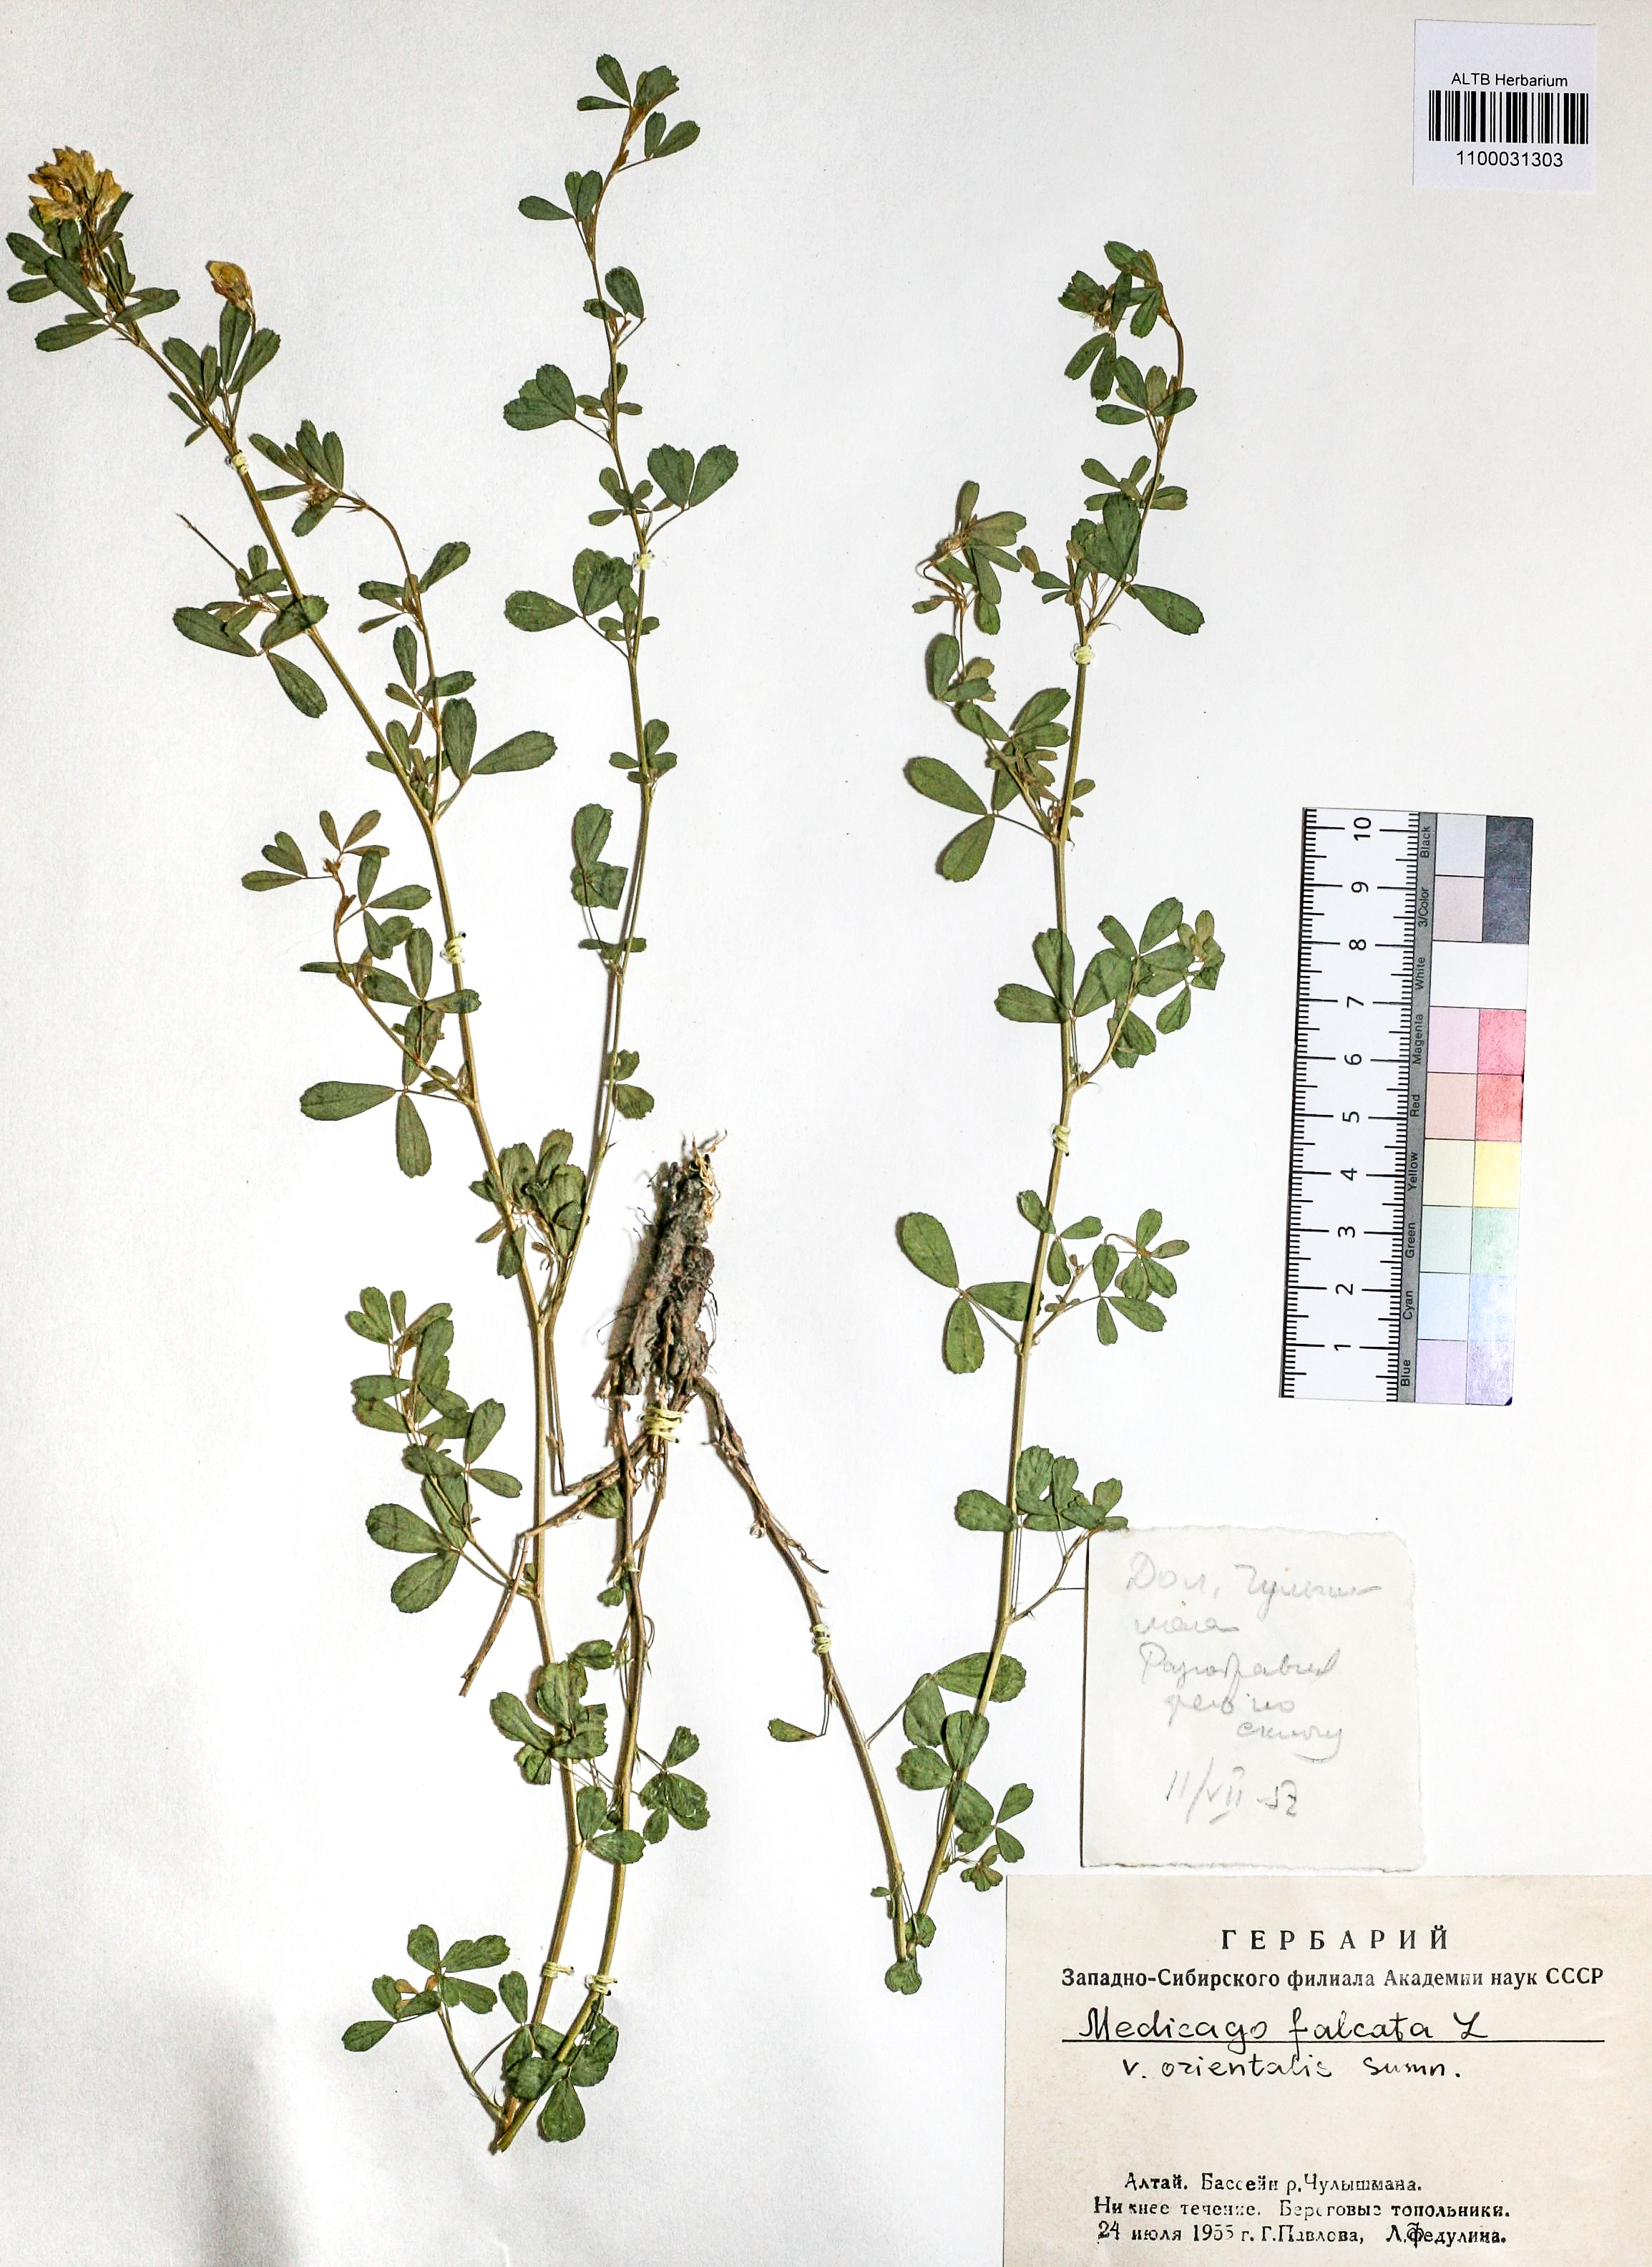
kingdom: Plantae
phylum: Tracheophyta
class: Magnoliopsida
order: Fabales
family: Fabaceae
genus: Medicago
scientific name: Medicago falcata
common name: Sickle medick
